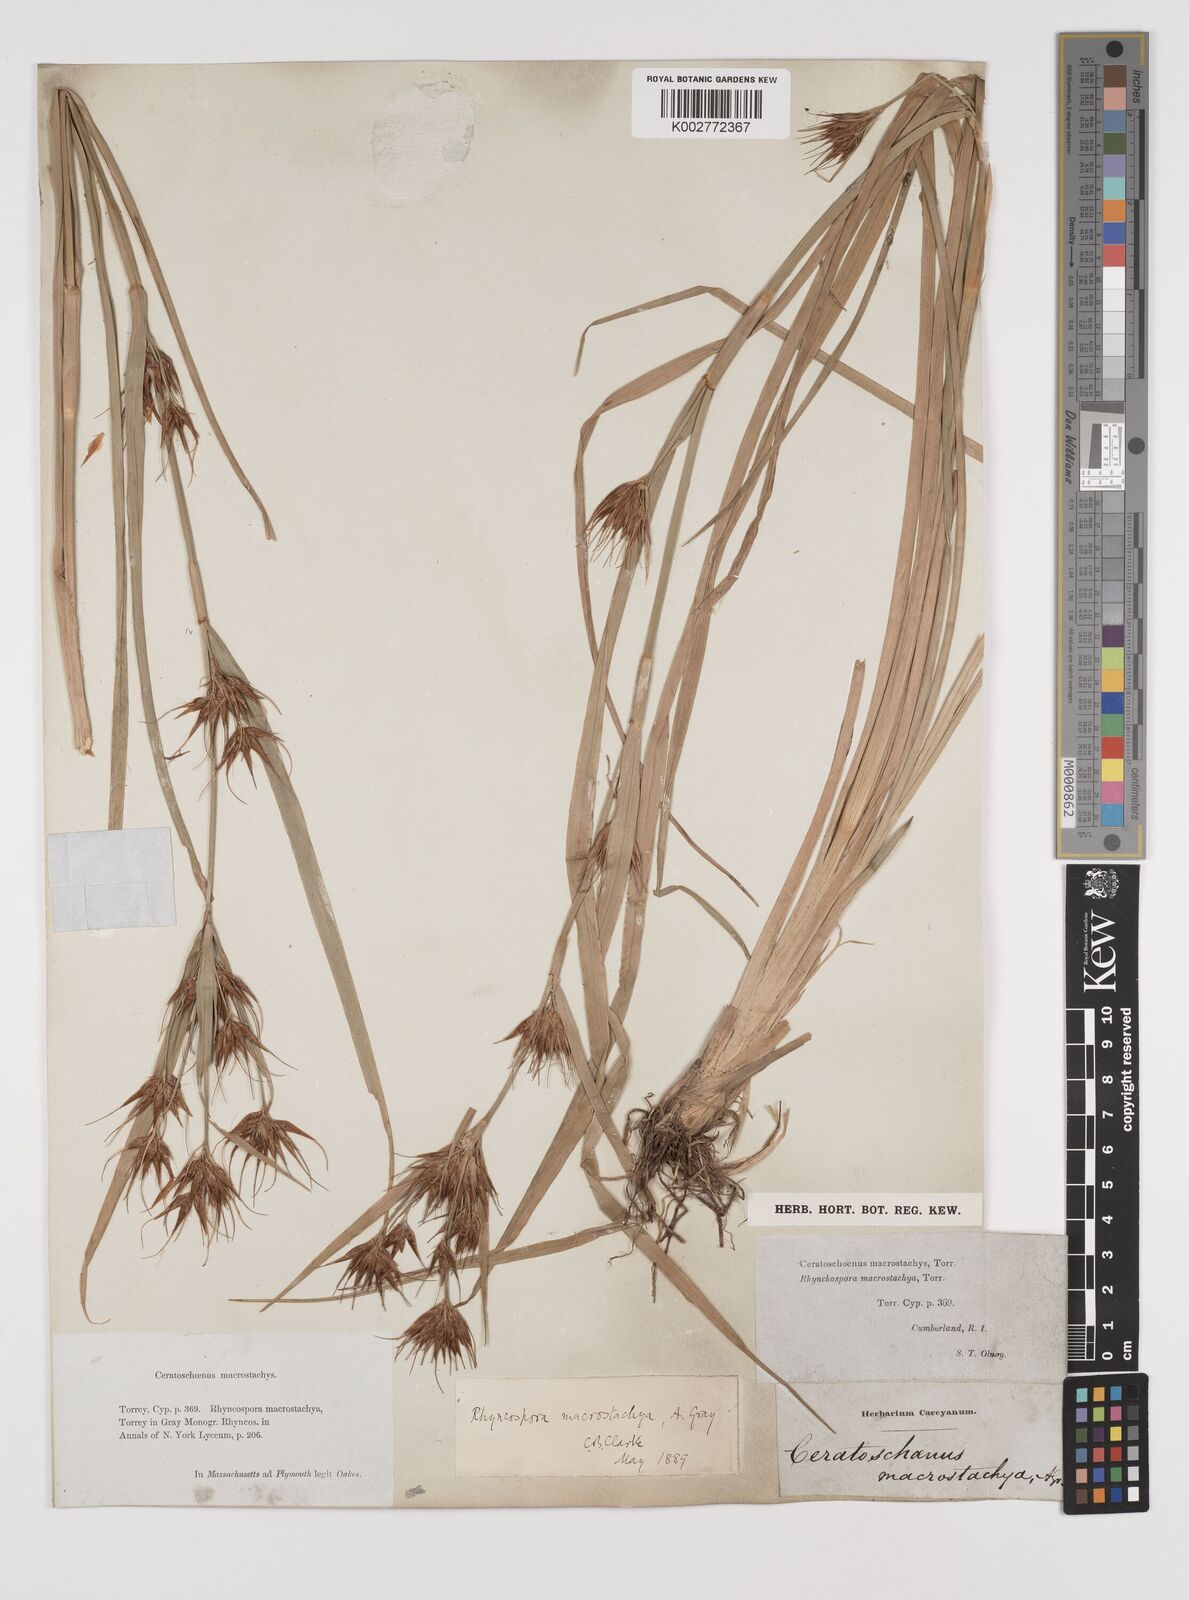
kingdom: Plantae
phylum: Tracheophyta
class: Liliopsida
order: Poales
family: Cyperaceae
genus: Rhynchospora
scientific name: Rhynchospora
